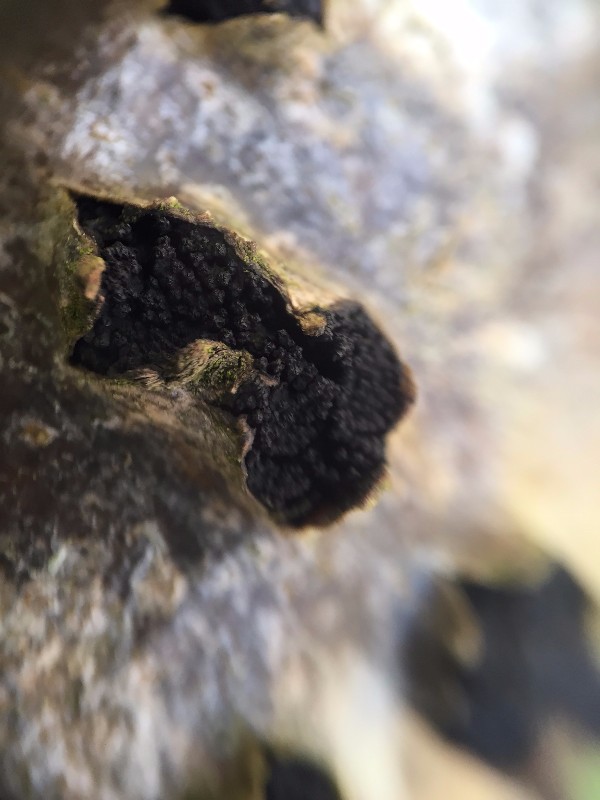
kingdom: Fungi
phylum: Ascomycota
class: Sordariomycetes
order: Sordariales
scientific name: Sordariales
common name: kernesvampordenen
